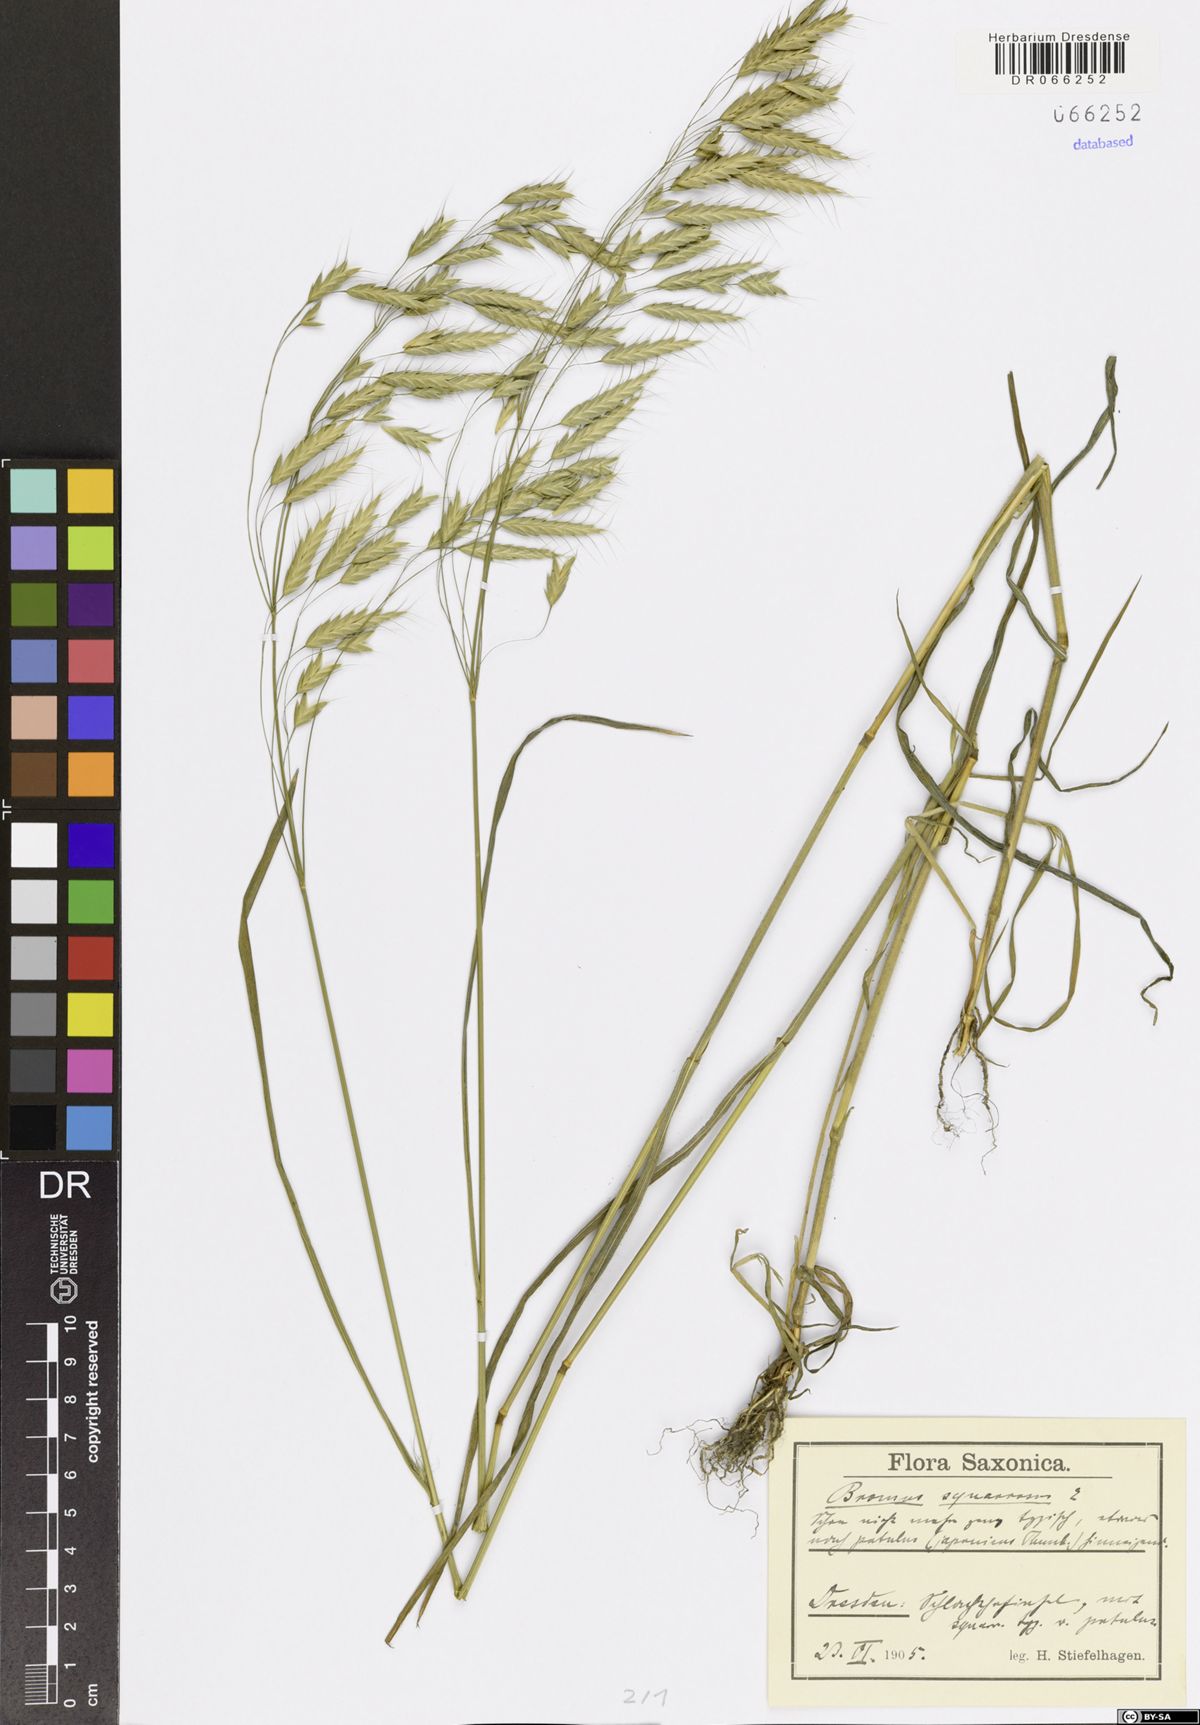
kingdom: Plantae
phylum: Tracheophyta
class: Liliopsida
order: Poales
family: Poaceae
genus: Bromus
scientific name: Bromus squarrosus
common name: Corn brome
